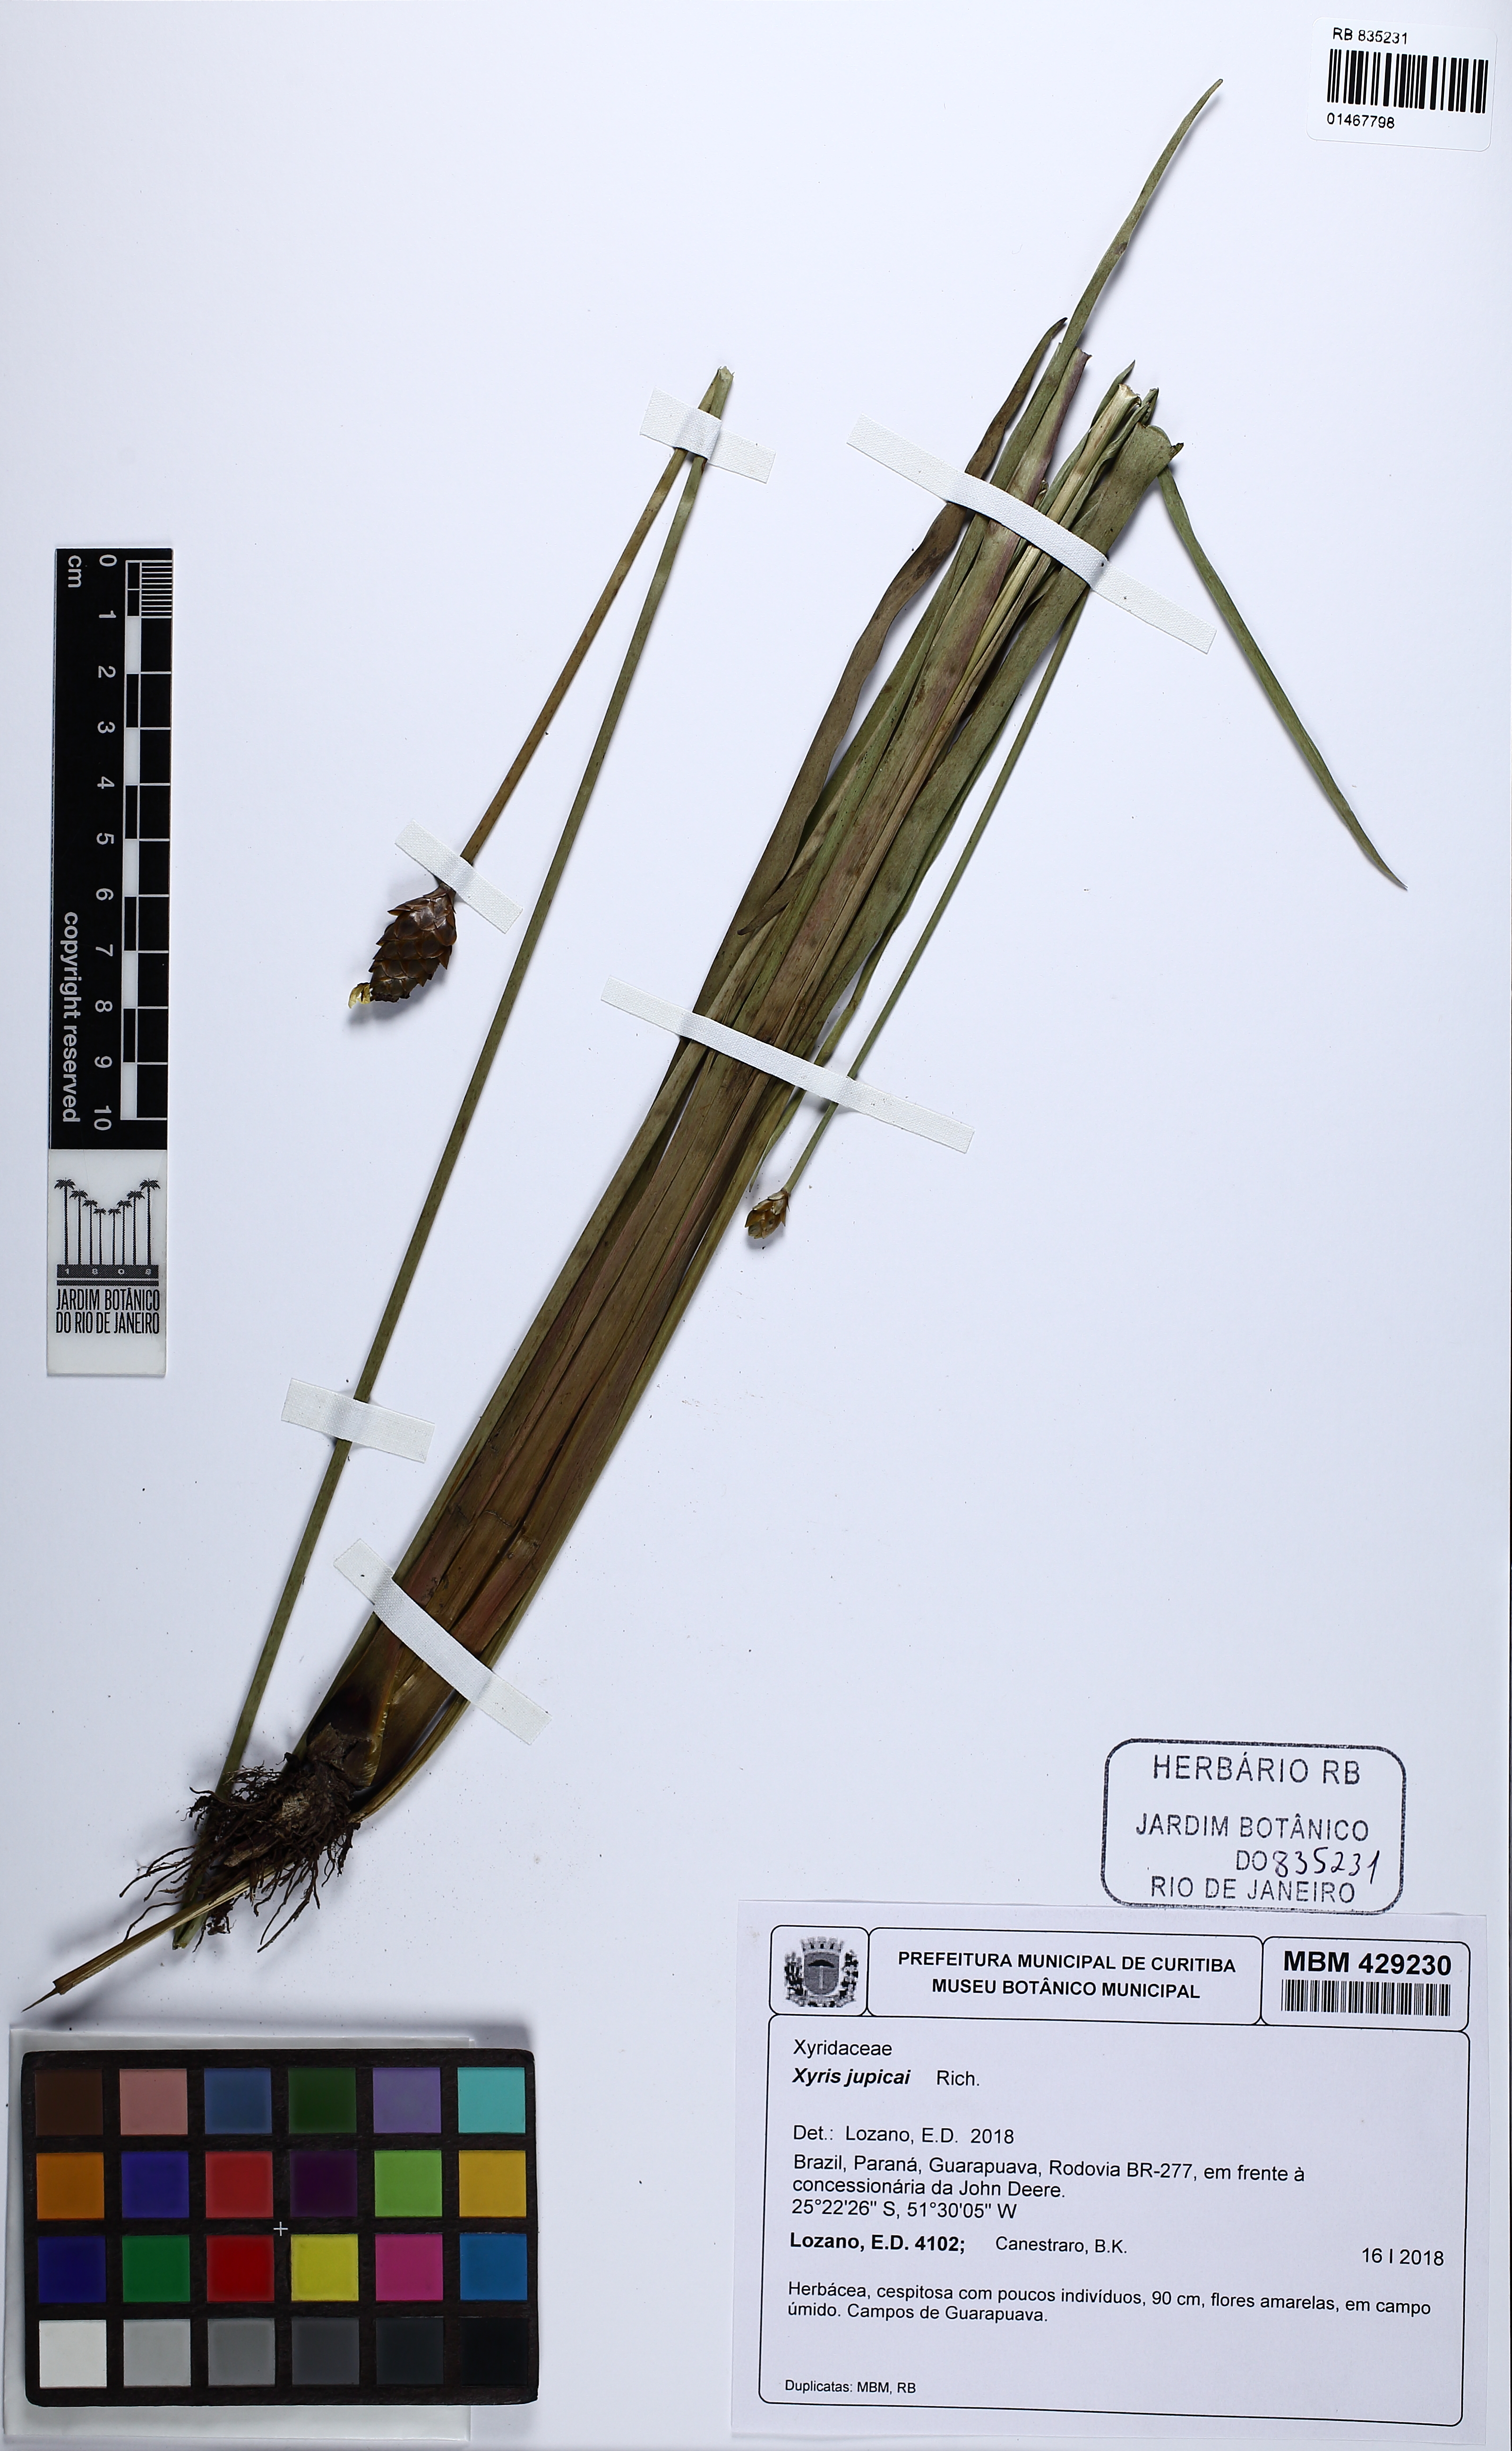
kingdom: Plantae
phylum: Tracheophyta
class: Liliopsida
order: Poales
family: Xyridaceae
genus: Xyris
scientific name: Xyris jupicai
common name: Richard's yelloweyed grass
